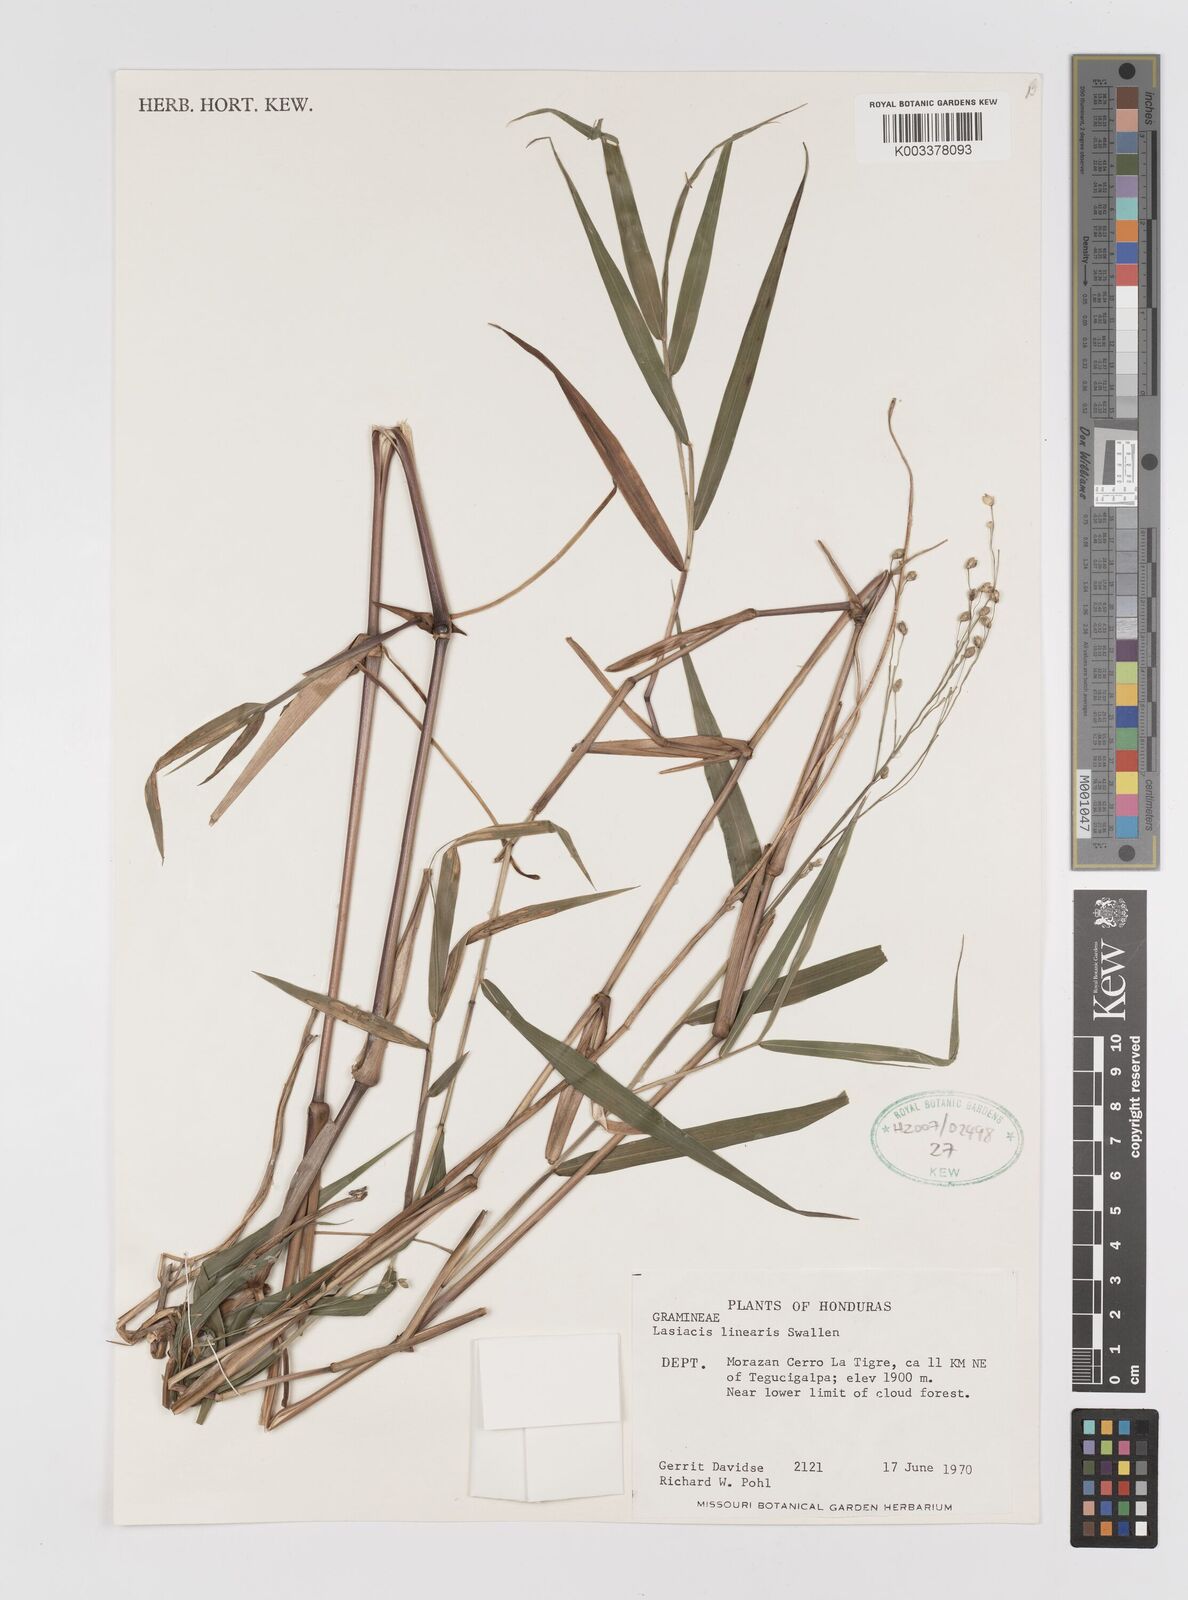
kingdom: Plantae
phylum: Tracheophyta
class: Liliopsida
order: Poales
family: Poaceae
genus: Lasiacis
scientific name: Lasiacis linearis
